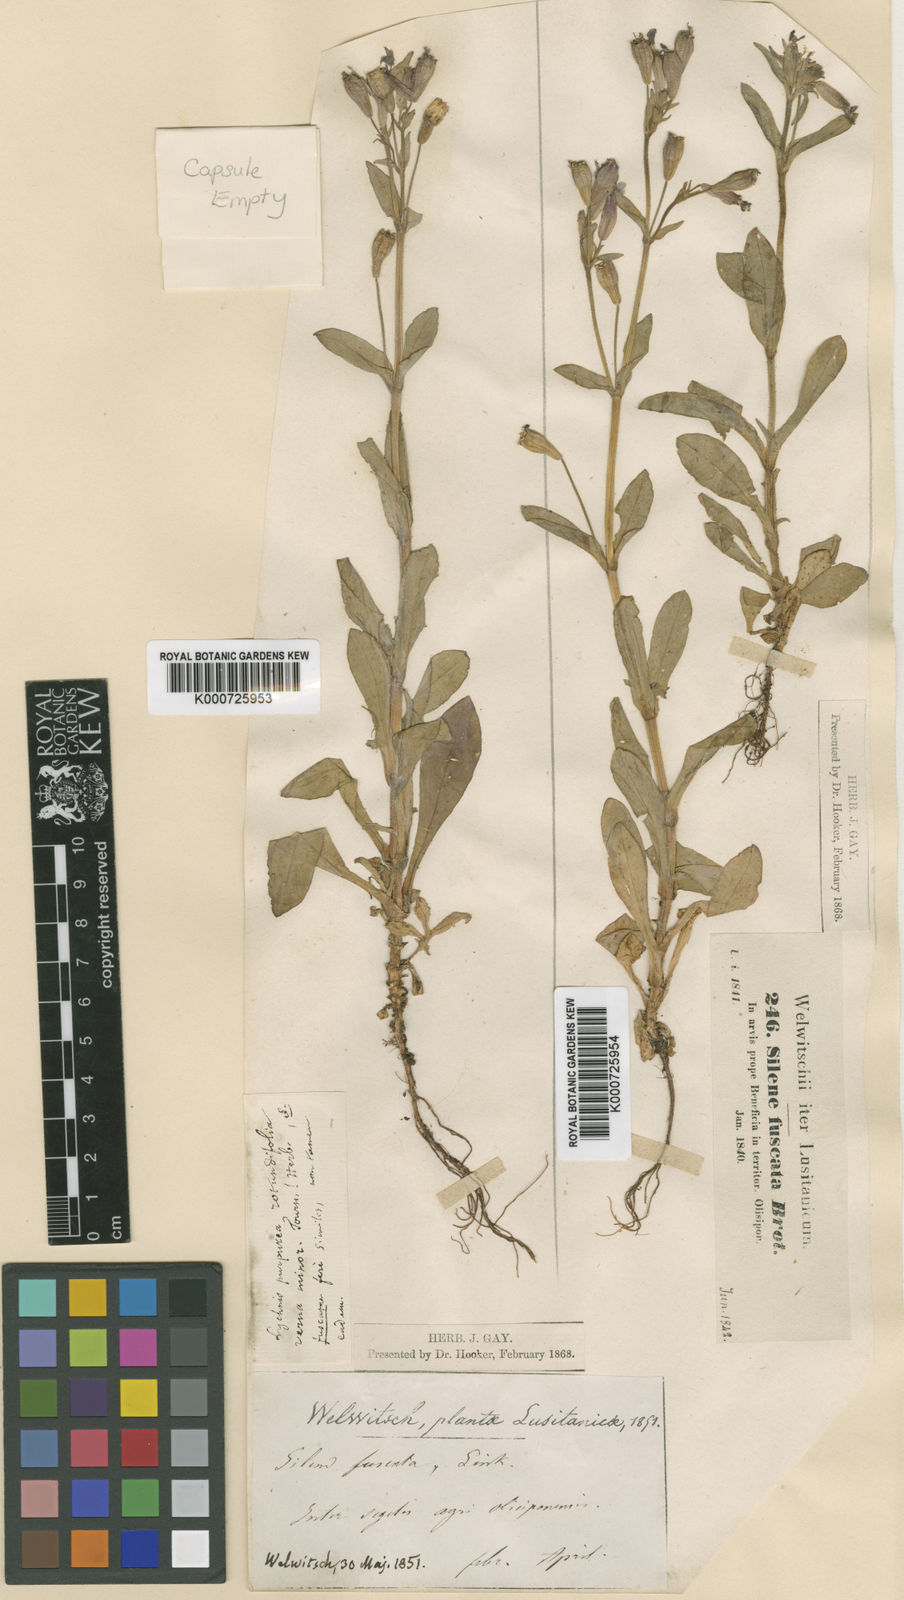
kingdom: Plantae
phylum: Tracheophyta
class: Magnoliopsida
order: Caryophyllales
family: Caryophyllaceae
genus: Silene
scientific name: Silene
